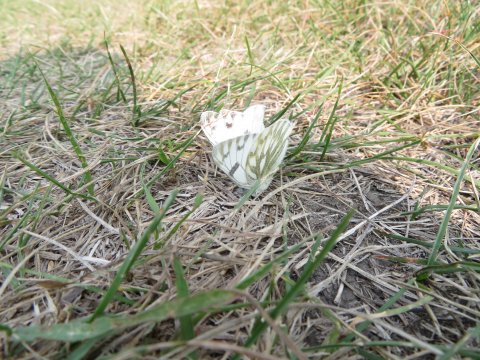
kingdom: Animalia
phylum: Arthropoda
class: Insecta
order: Lepidoptera
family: Pieridae
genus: Pontia
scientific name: Pontia occidentalis
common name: Western White
